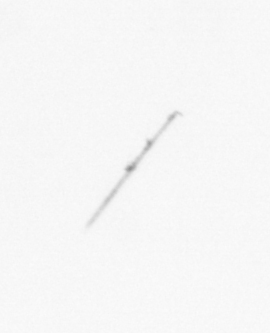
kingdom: Chromista
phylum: Ochrophyta
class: Bacillariophyceae
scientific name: Bacillariophyceae
